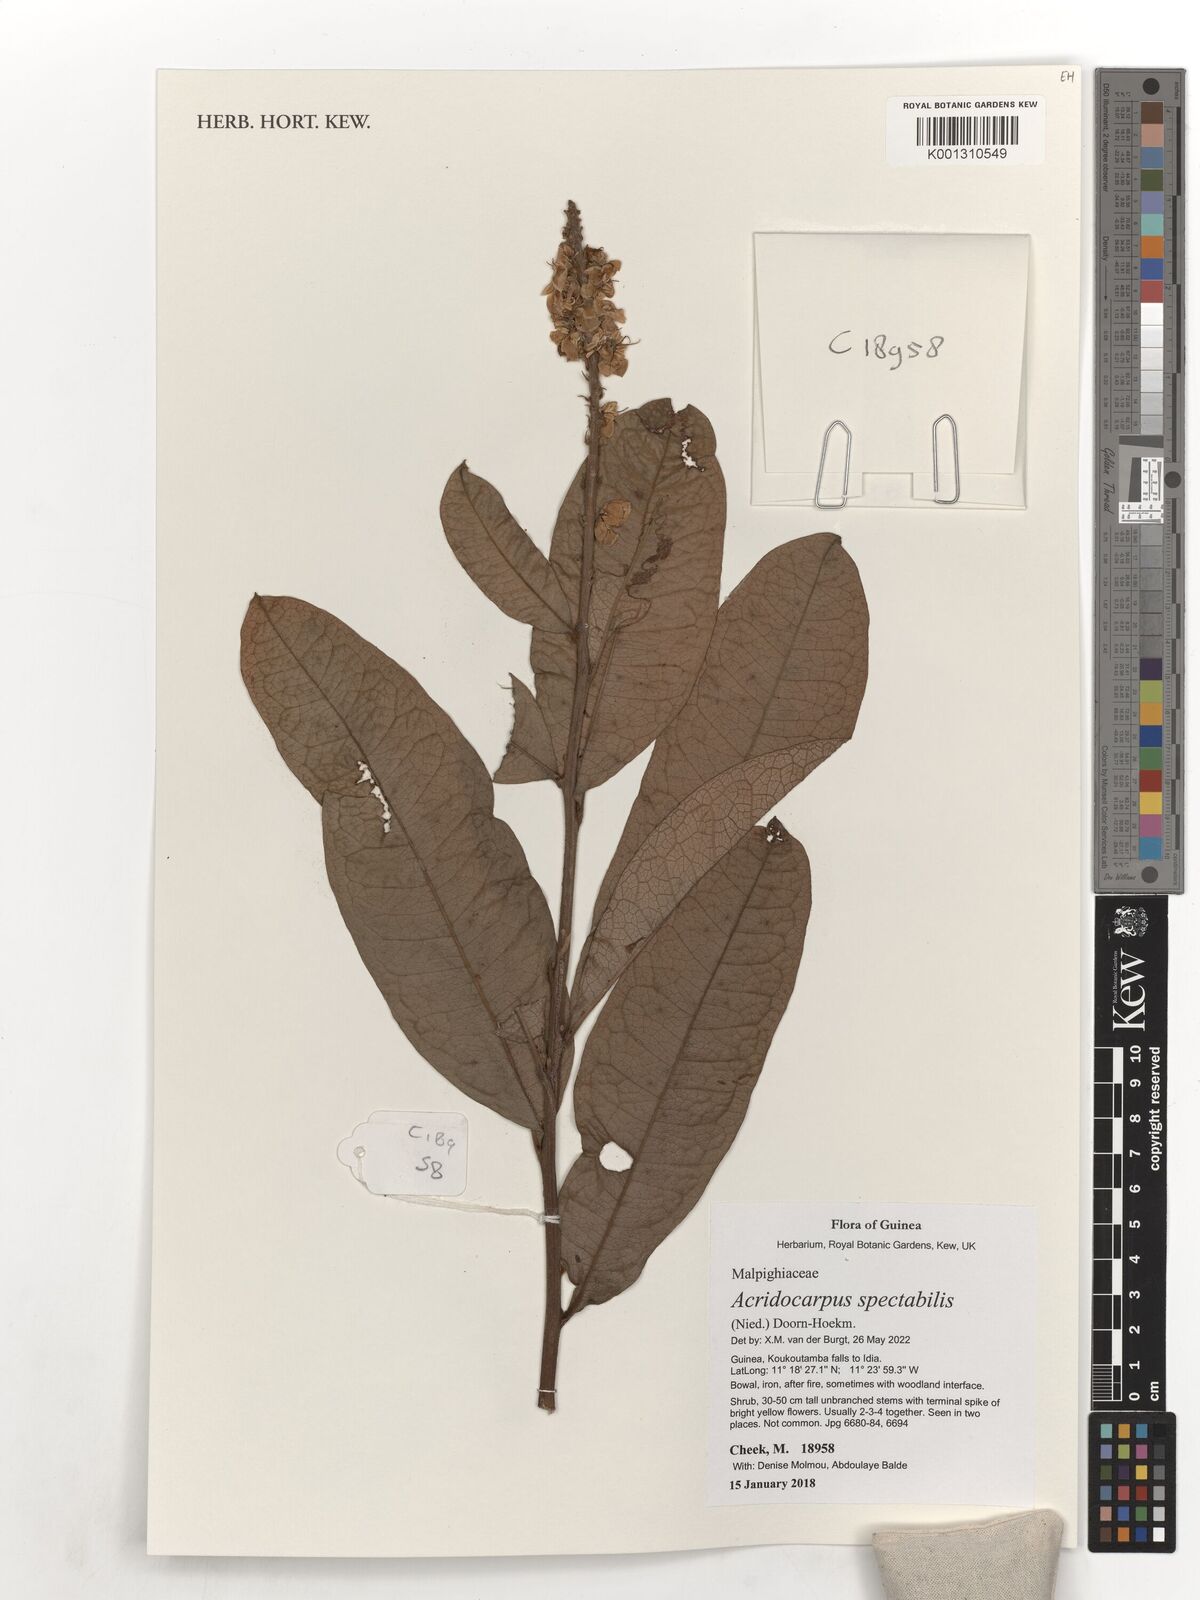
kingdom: Plantae
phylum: Tracheophyta
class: Magnoliopsida
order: Malpighiales
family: Malpighiaceae
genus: Acridocarpus
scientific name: Acridocarpus spectabilis
